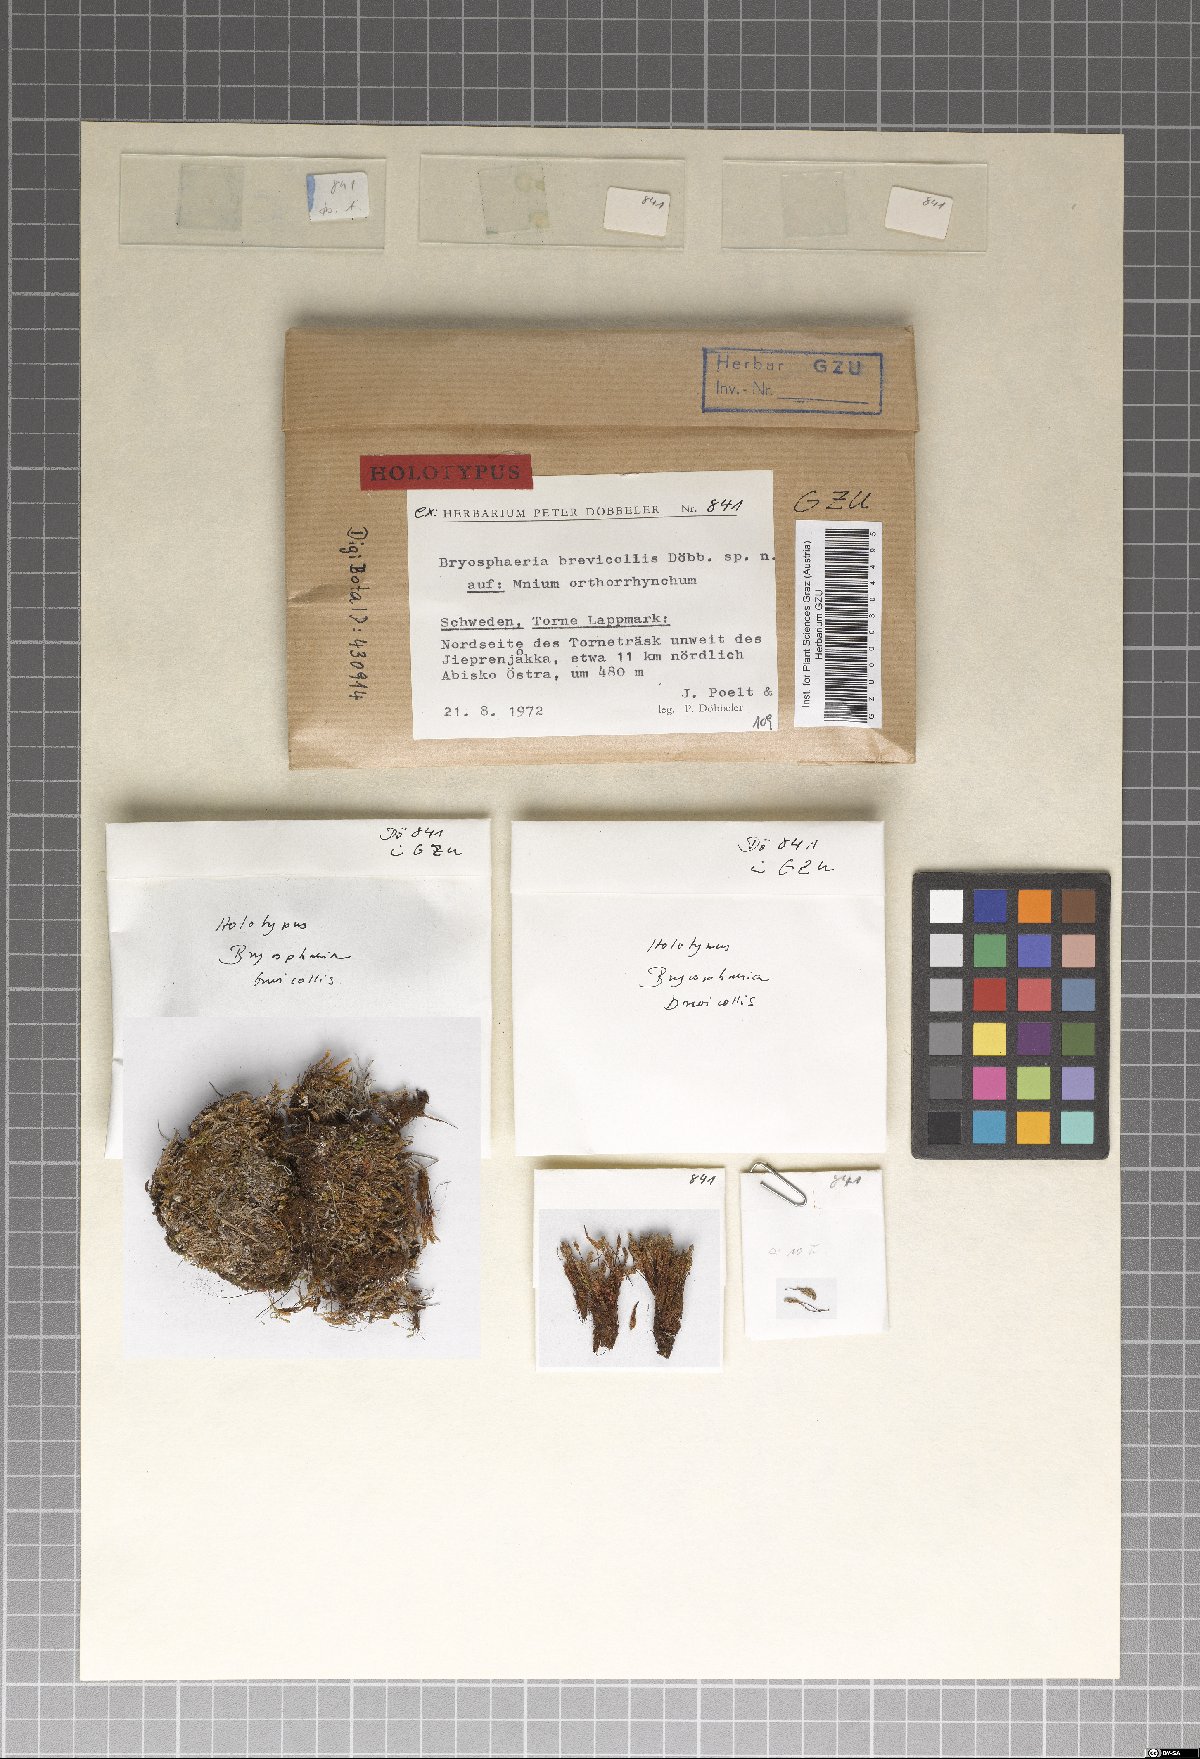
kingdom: Fungi
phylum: Ascomycota
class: Dothideomycetes
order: Dothideales
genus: Bryosphaeria
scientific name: Bryosphaeria brevicollis
